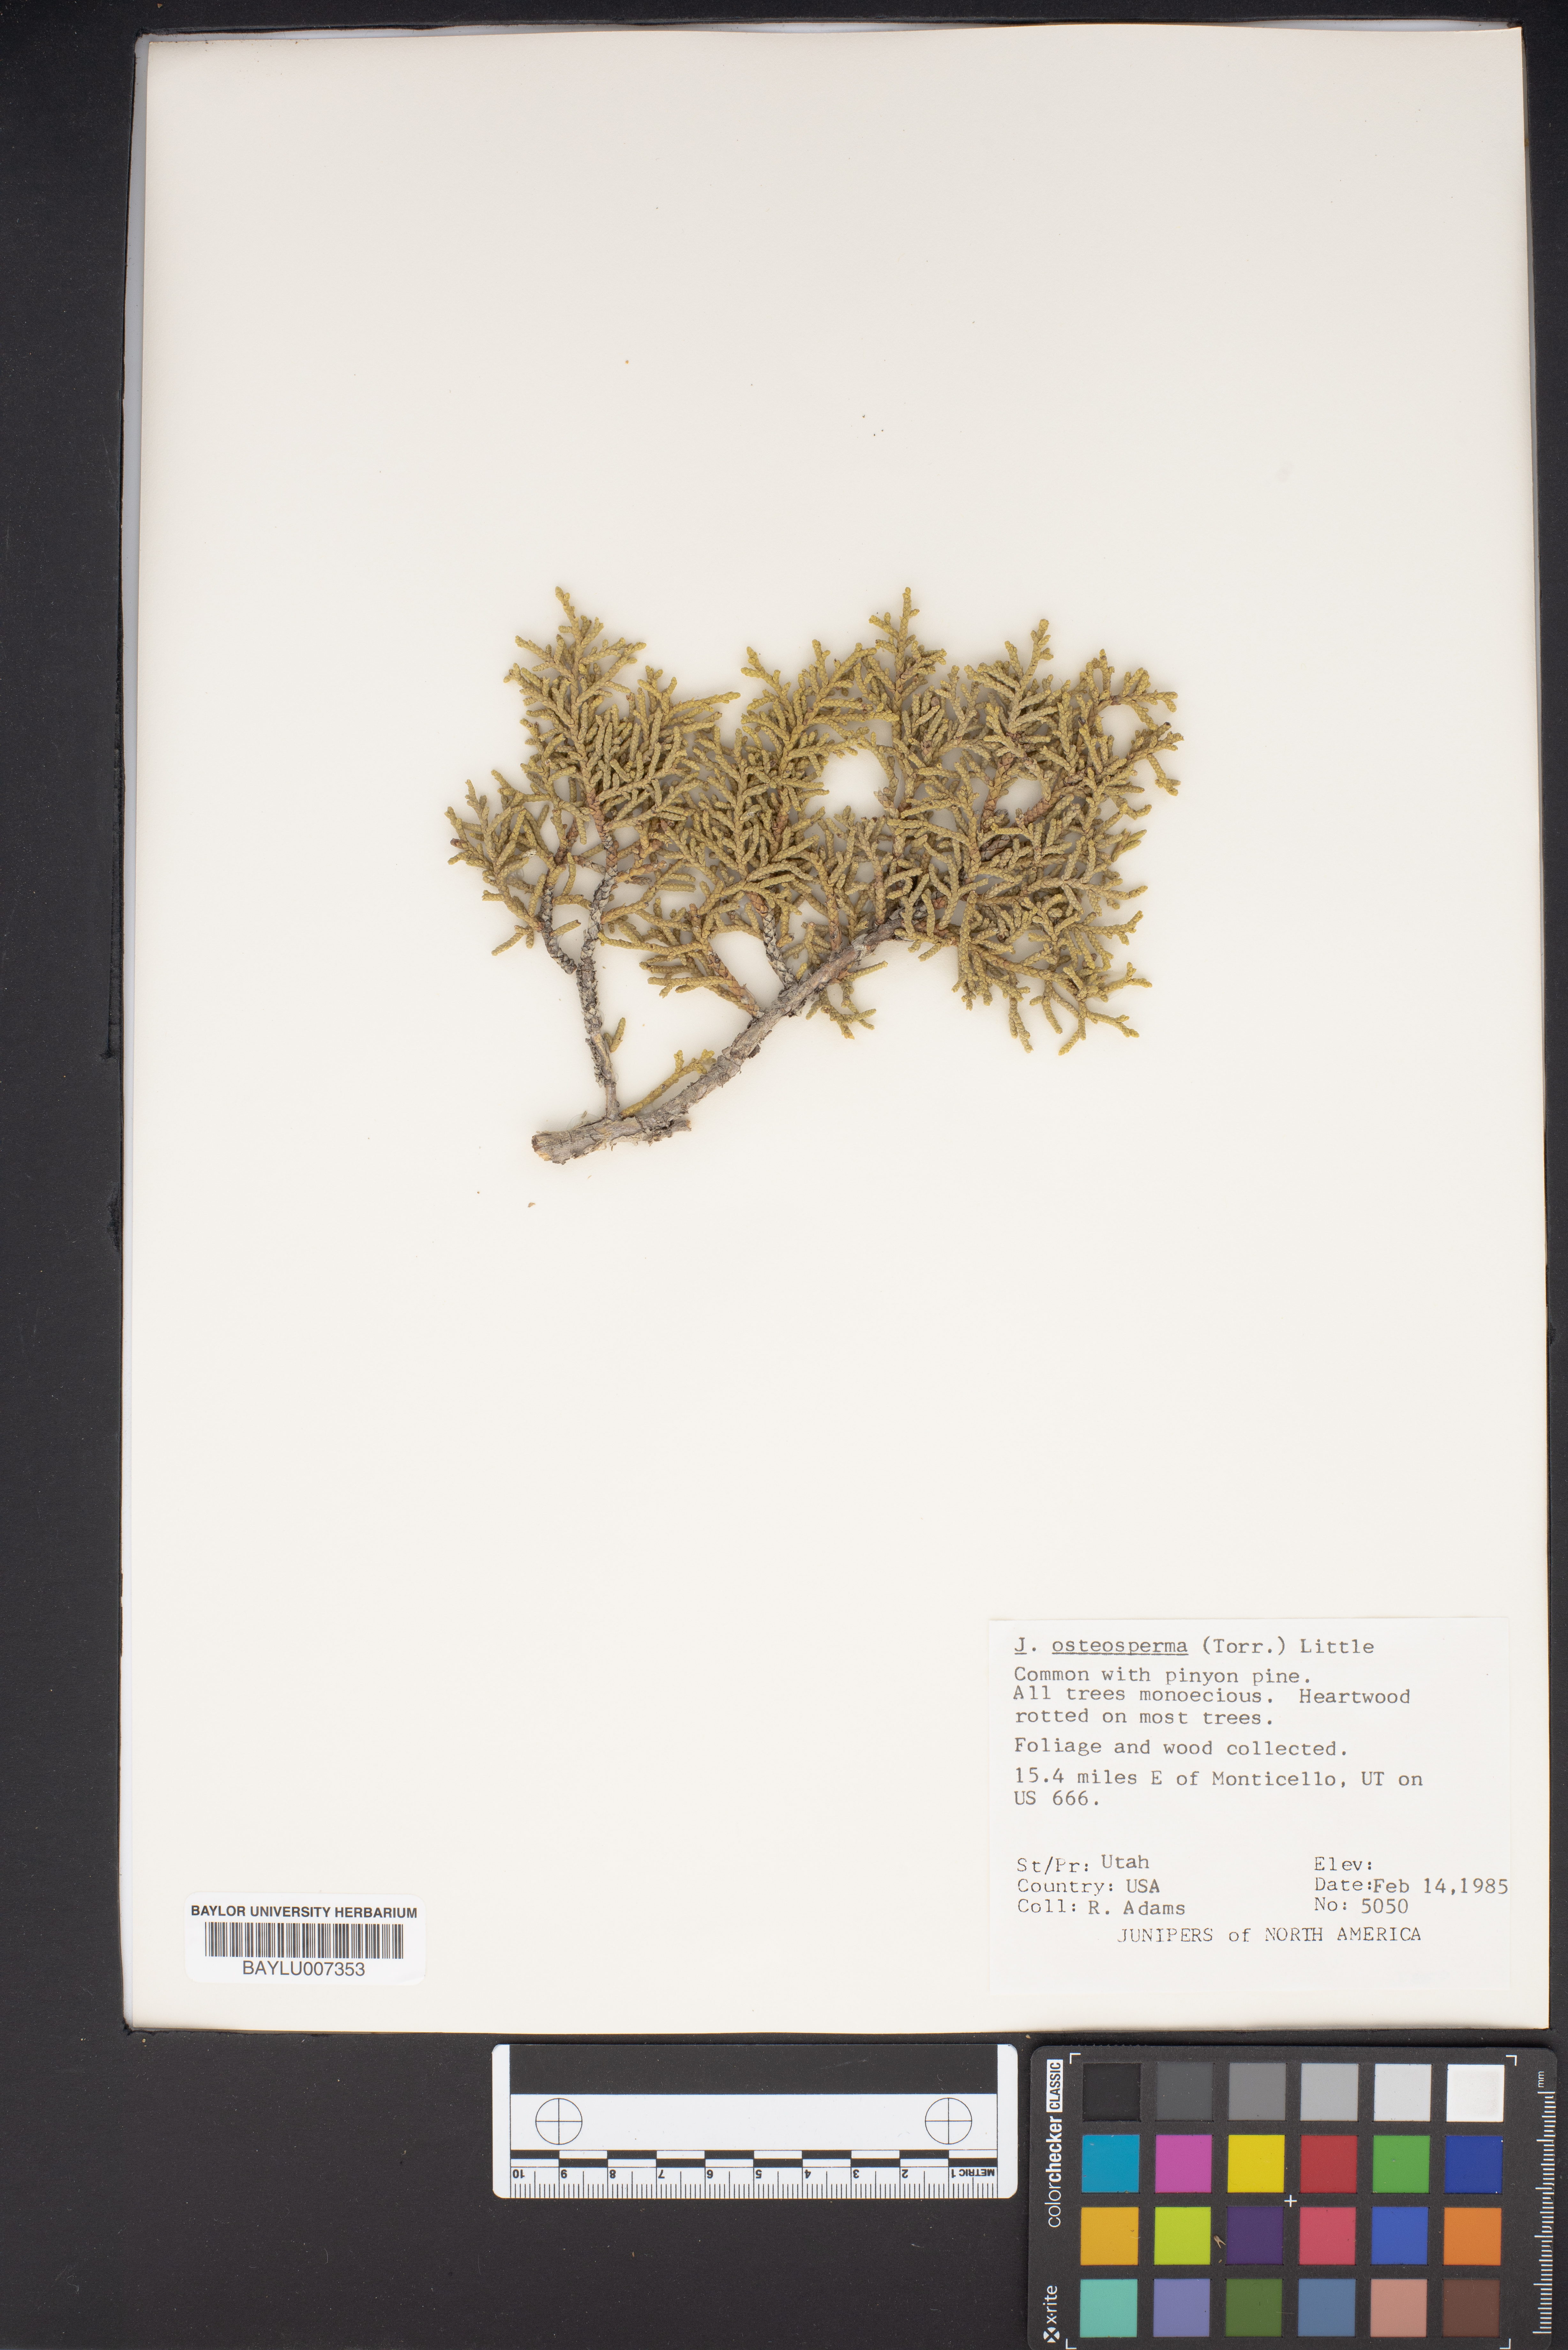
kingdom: Plantae
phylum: Tracheophyta
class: Pinopsida
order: Pinales
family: Cupressaceae
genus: Juniperus
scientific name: Juniperus osteosperma
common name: Utah juniper
